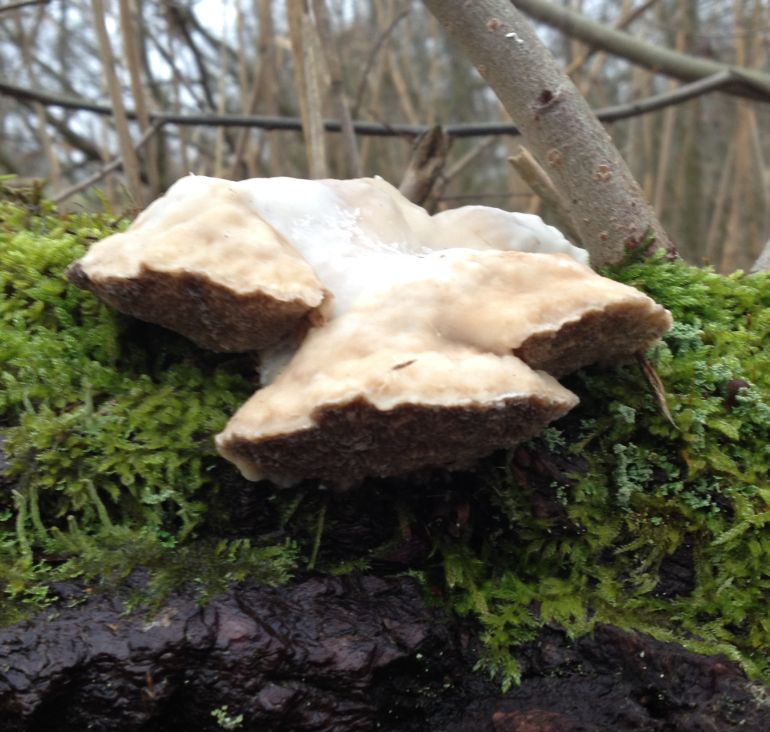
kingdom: Fungi
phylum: Basidiomycota
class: Agaricomycetes
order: Polyporales
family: Polyporaceae
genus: Trametes
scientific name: Trametes suaveolens
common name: vellugtende læderporesvamp
